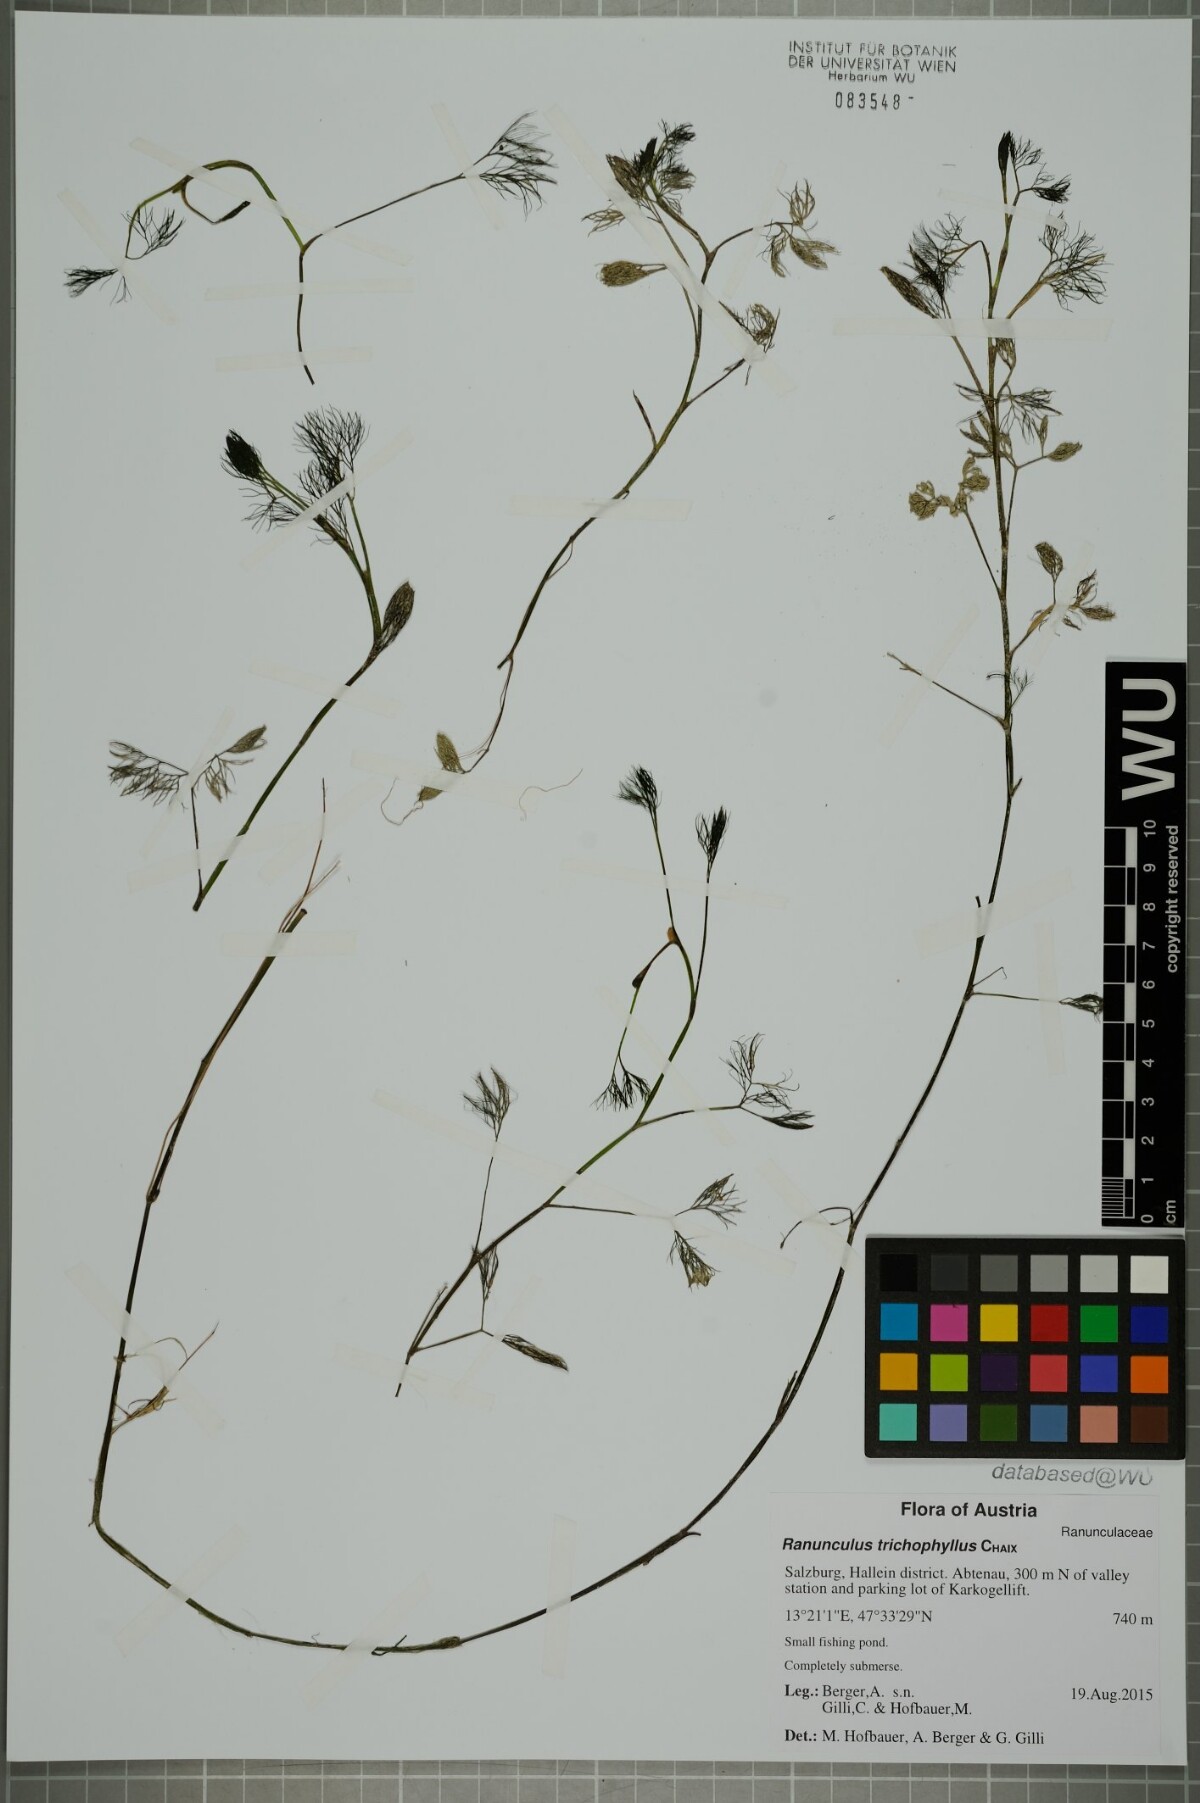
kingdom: Plantae
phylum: Tracheophyta
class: Magnoliopsida
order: Ranunculales
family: Ranunculaceae
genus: Ranunculus
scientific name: Ranunculus trichophyllus
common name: Thread-leaved water-crowfoot
